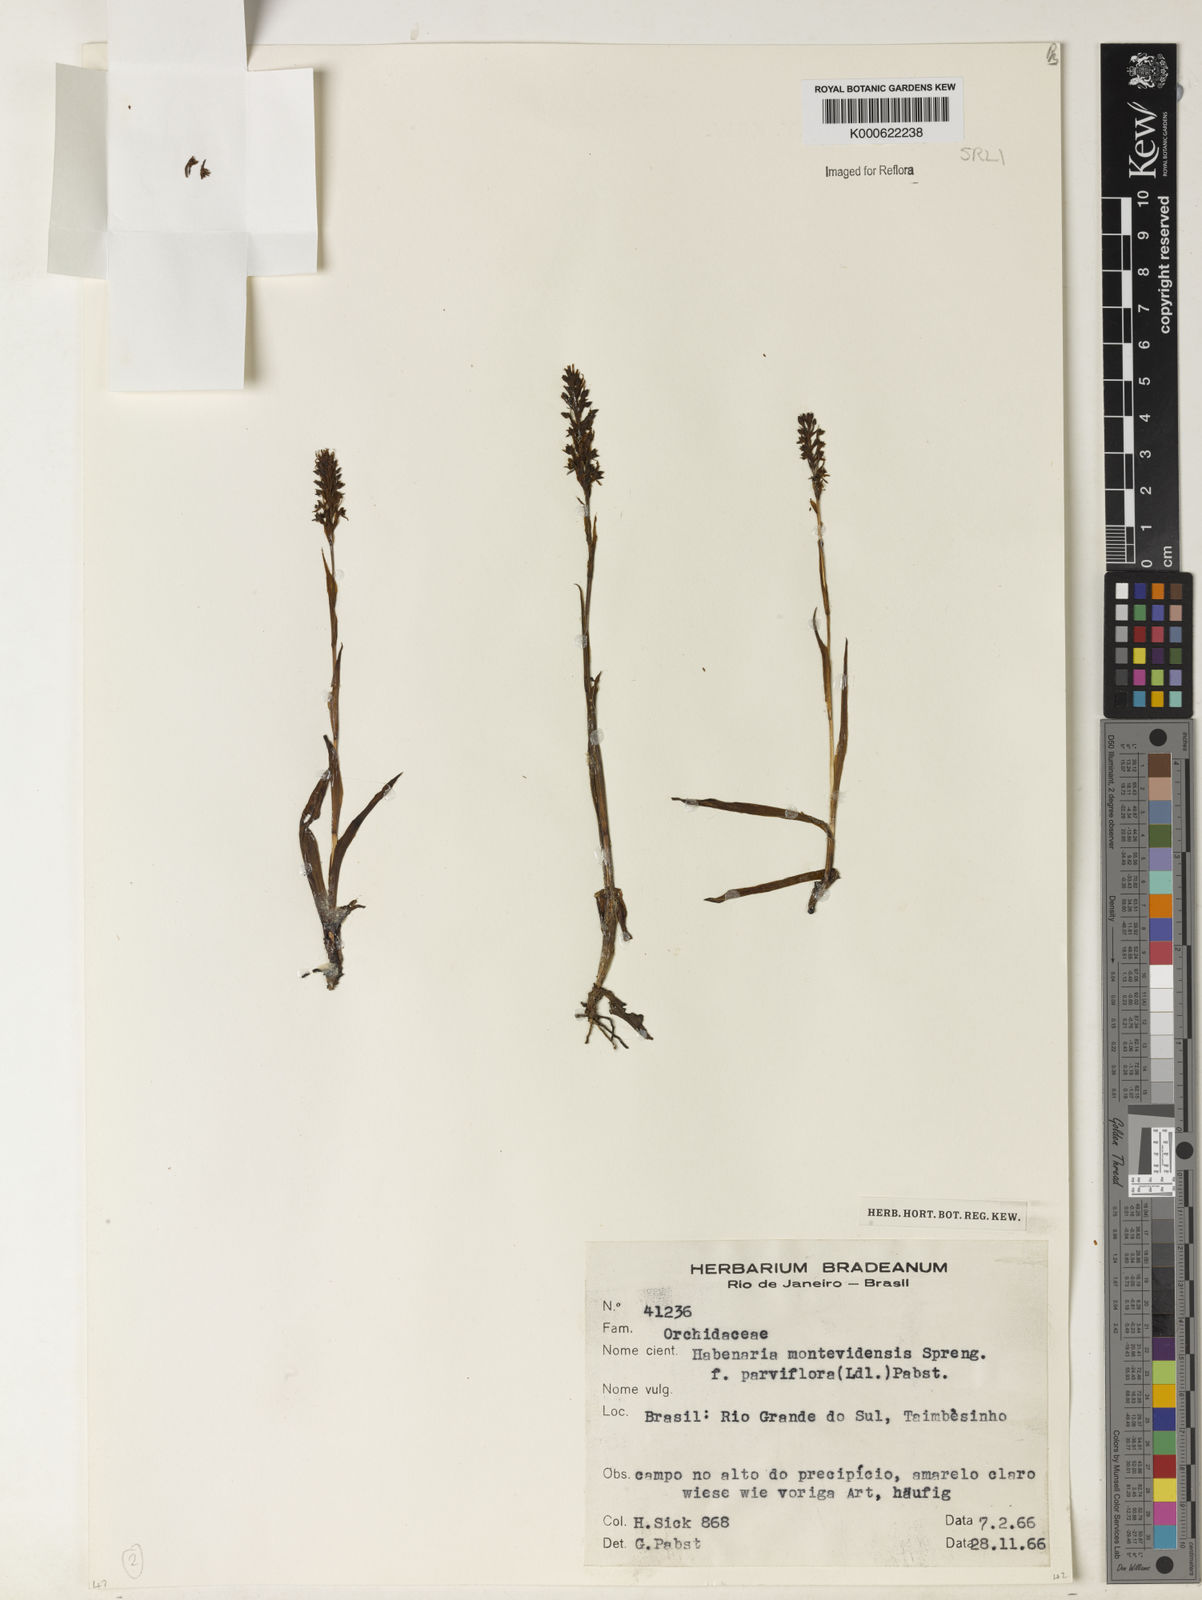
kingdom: Plantae
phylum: Tracheophyta
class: Liliopsida
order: Asparagales
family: Orchidaceae
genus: Habenaria
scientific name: Habenaria parviflora
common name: Small flowered habenaria
